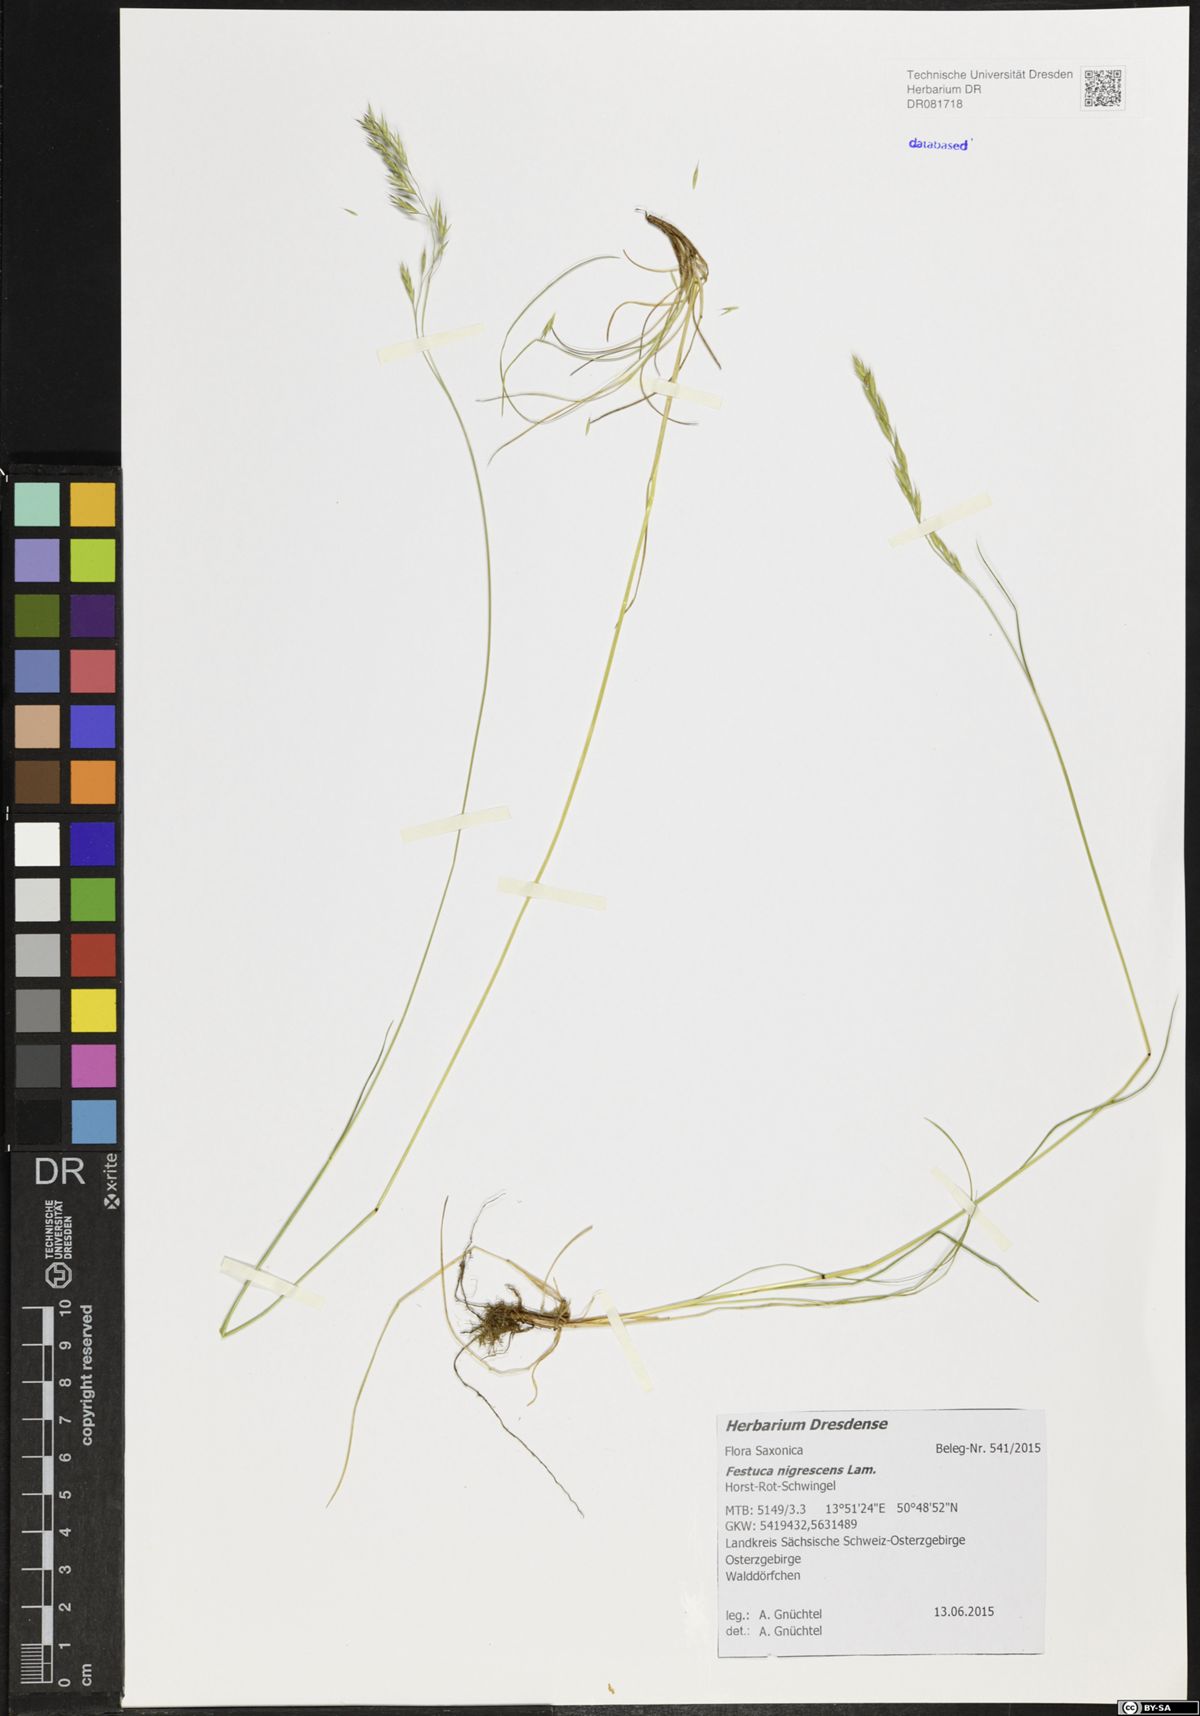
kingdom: Plantae
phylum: Tracheophyta
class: Liliopsida
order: Poales
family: Poaceae
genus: Festuca
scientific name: Festuca nigrescens
